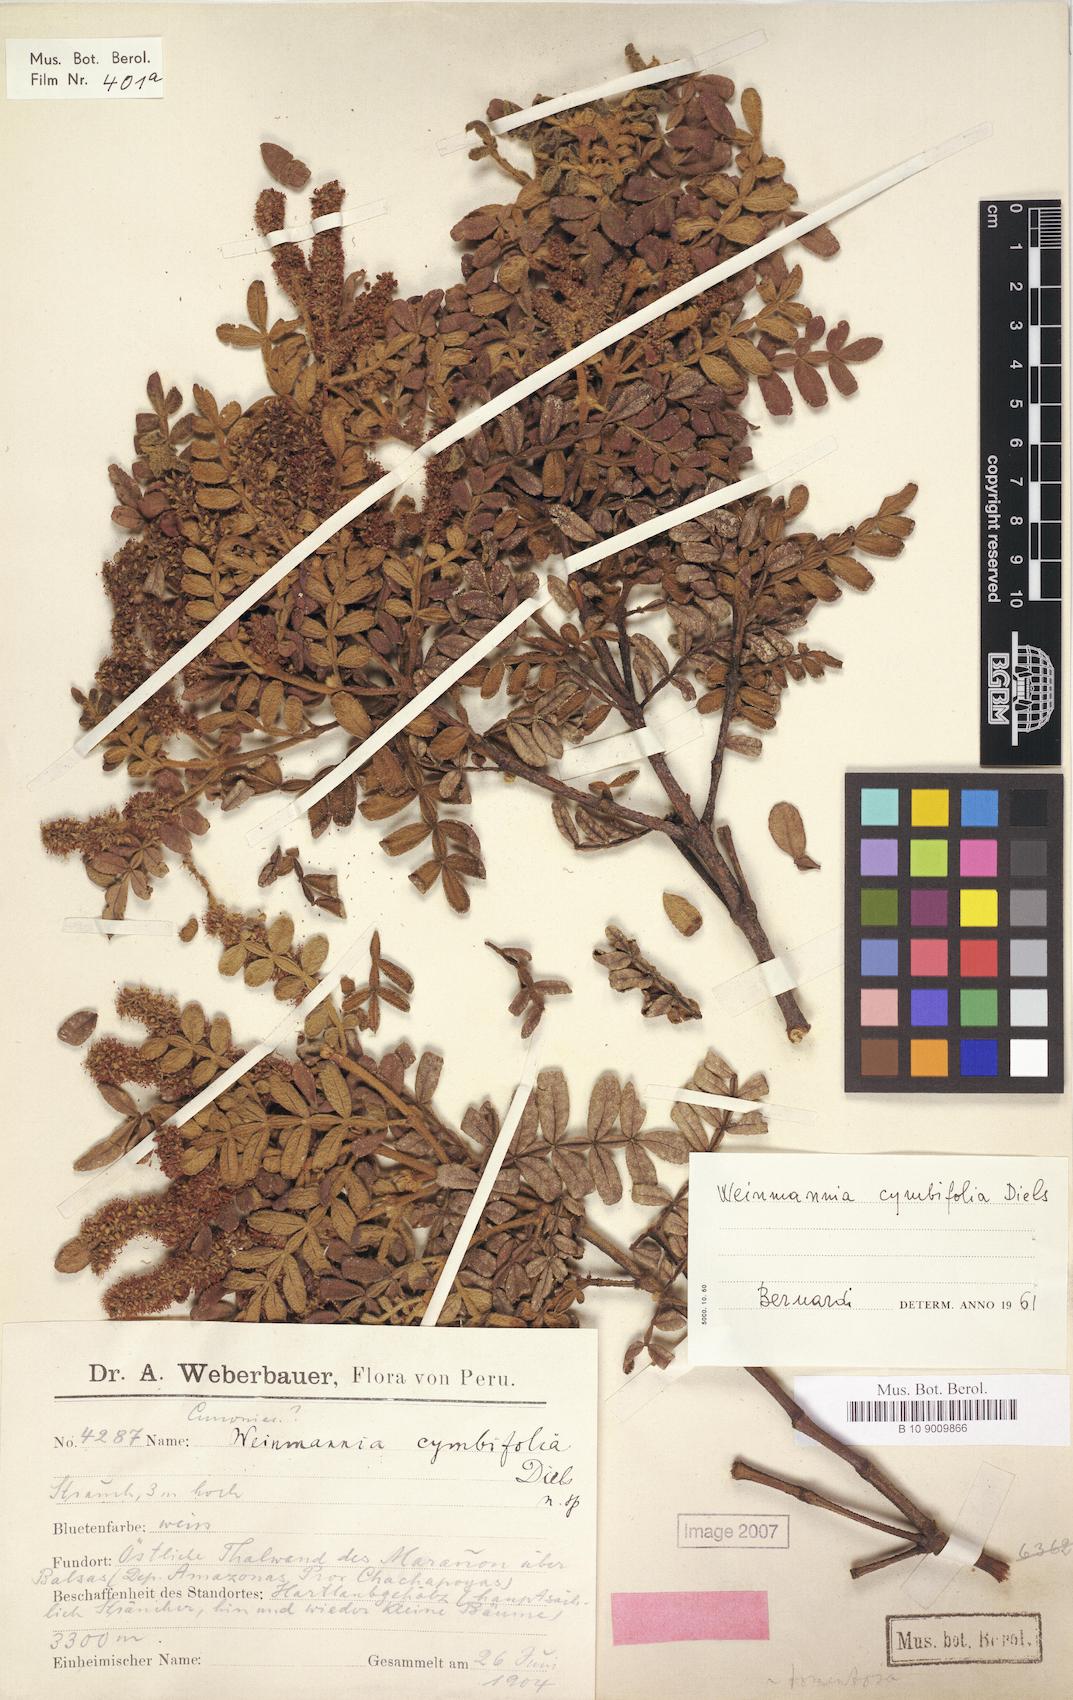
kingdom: Plantae
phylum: Tracheophyta
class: Magnoliopsida
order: Oxalidales
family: Cunoniaceae
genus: Weinmannia
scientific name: Weinmannia cymbifolia
